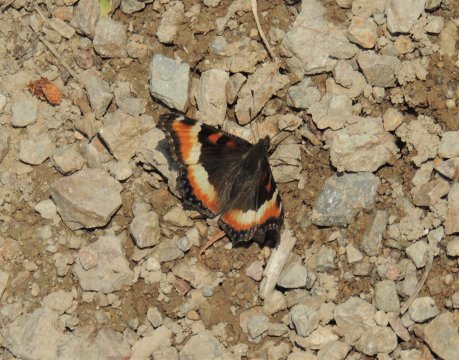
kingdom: Animalia
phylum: Arthropoda
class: Insecta
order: Lepidoptera
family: Nymphalidae
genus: Aglais
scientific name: Aglais milberti
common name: Milbert's Tortoiseshell
